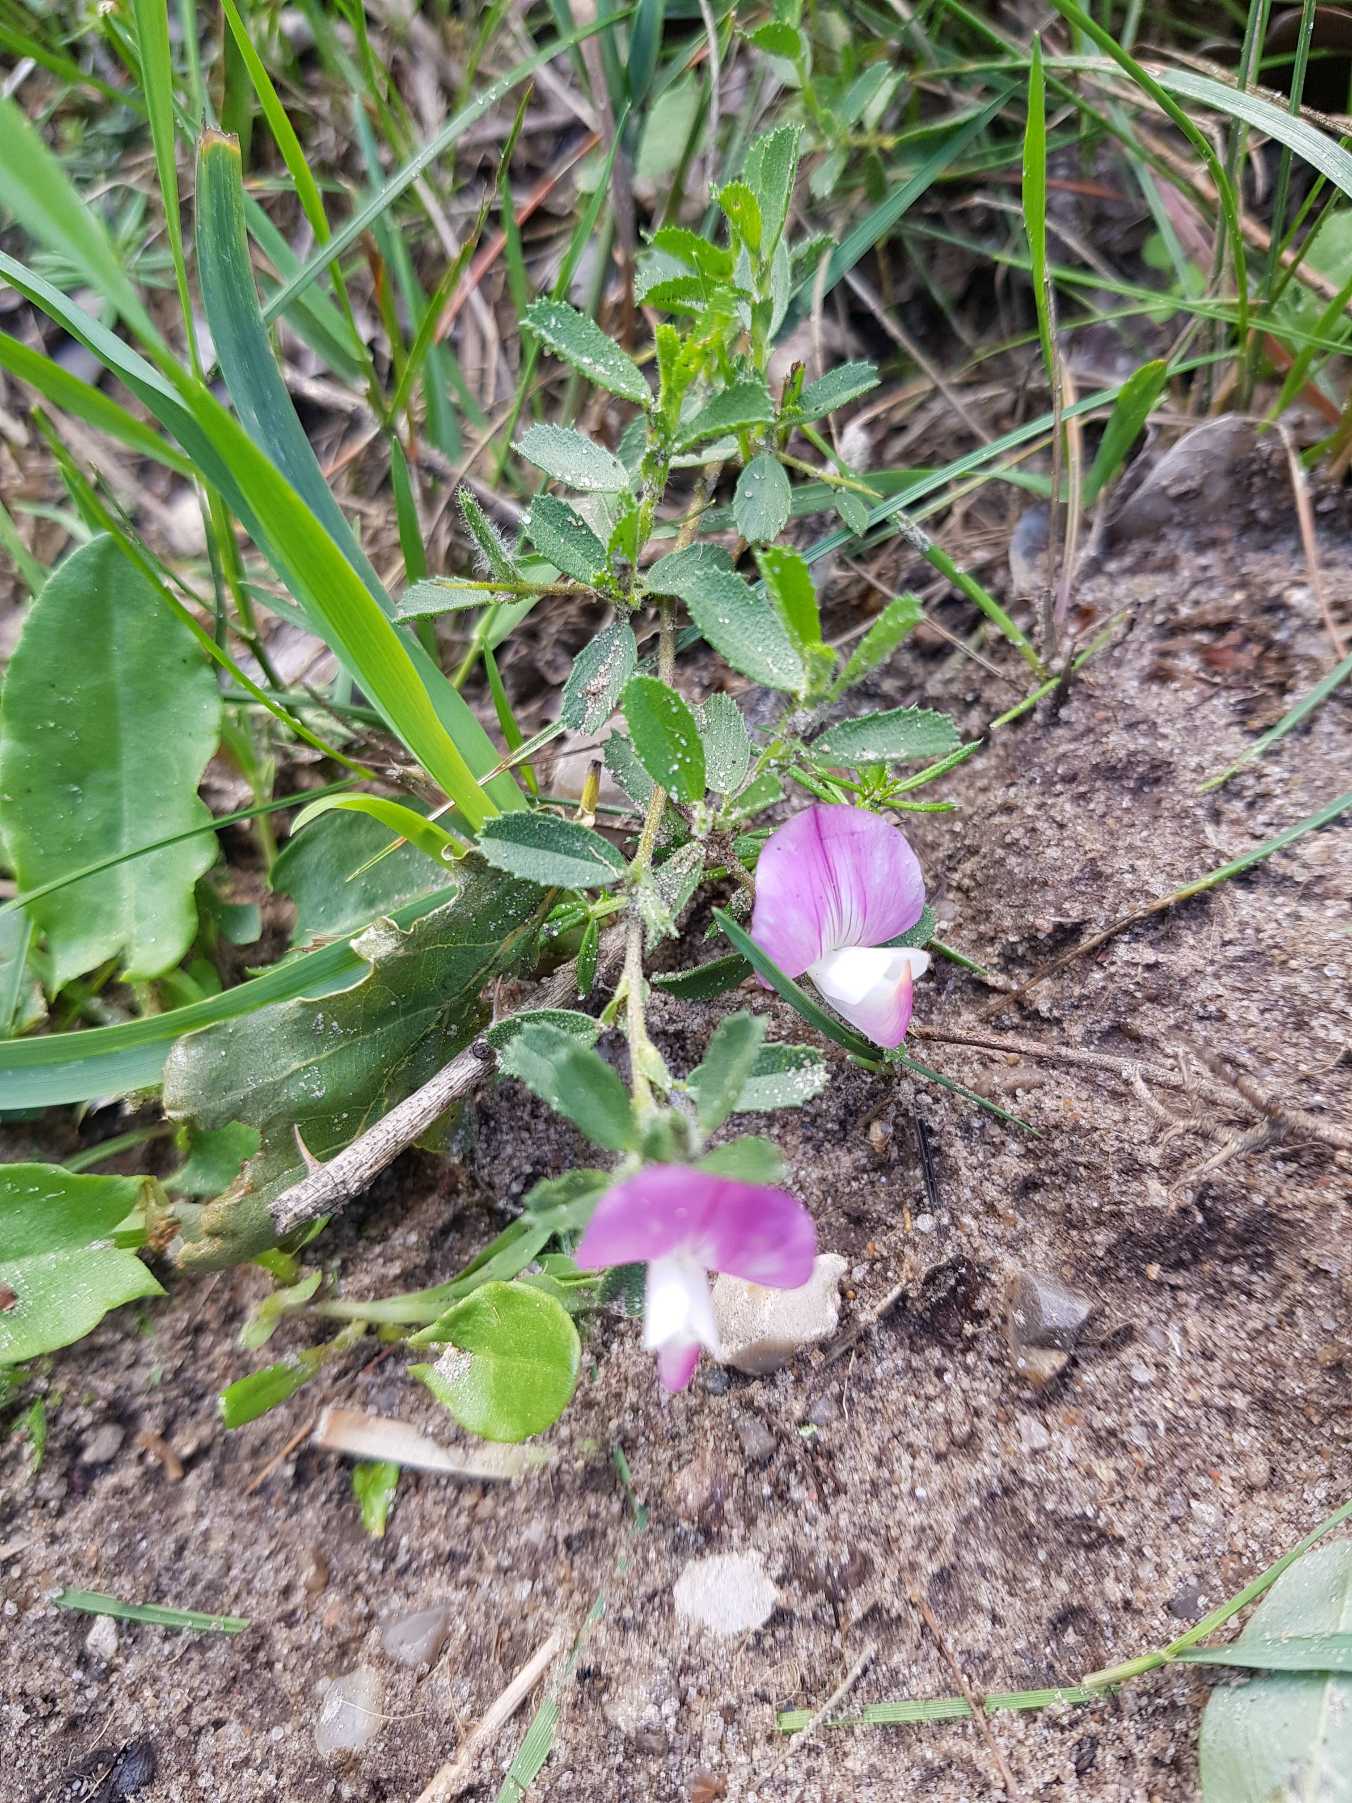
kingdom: Plantae
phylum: Tracheophyta
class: Magnoliopsida
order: Fabales
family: Fabaceae
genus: Ononis
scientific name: Ononis spinosa
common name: Mark-krageklo
